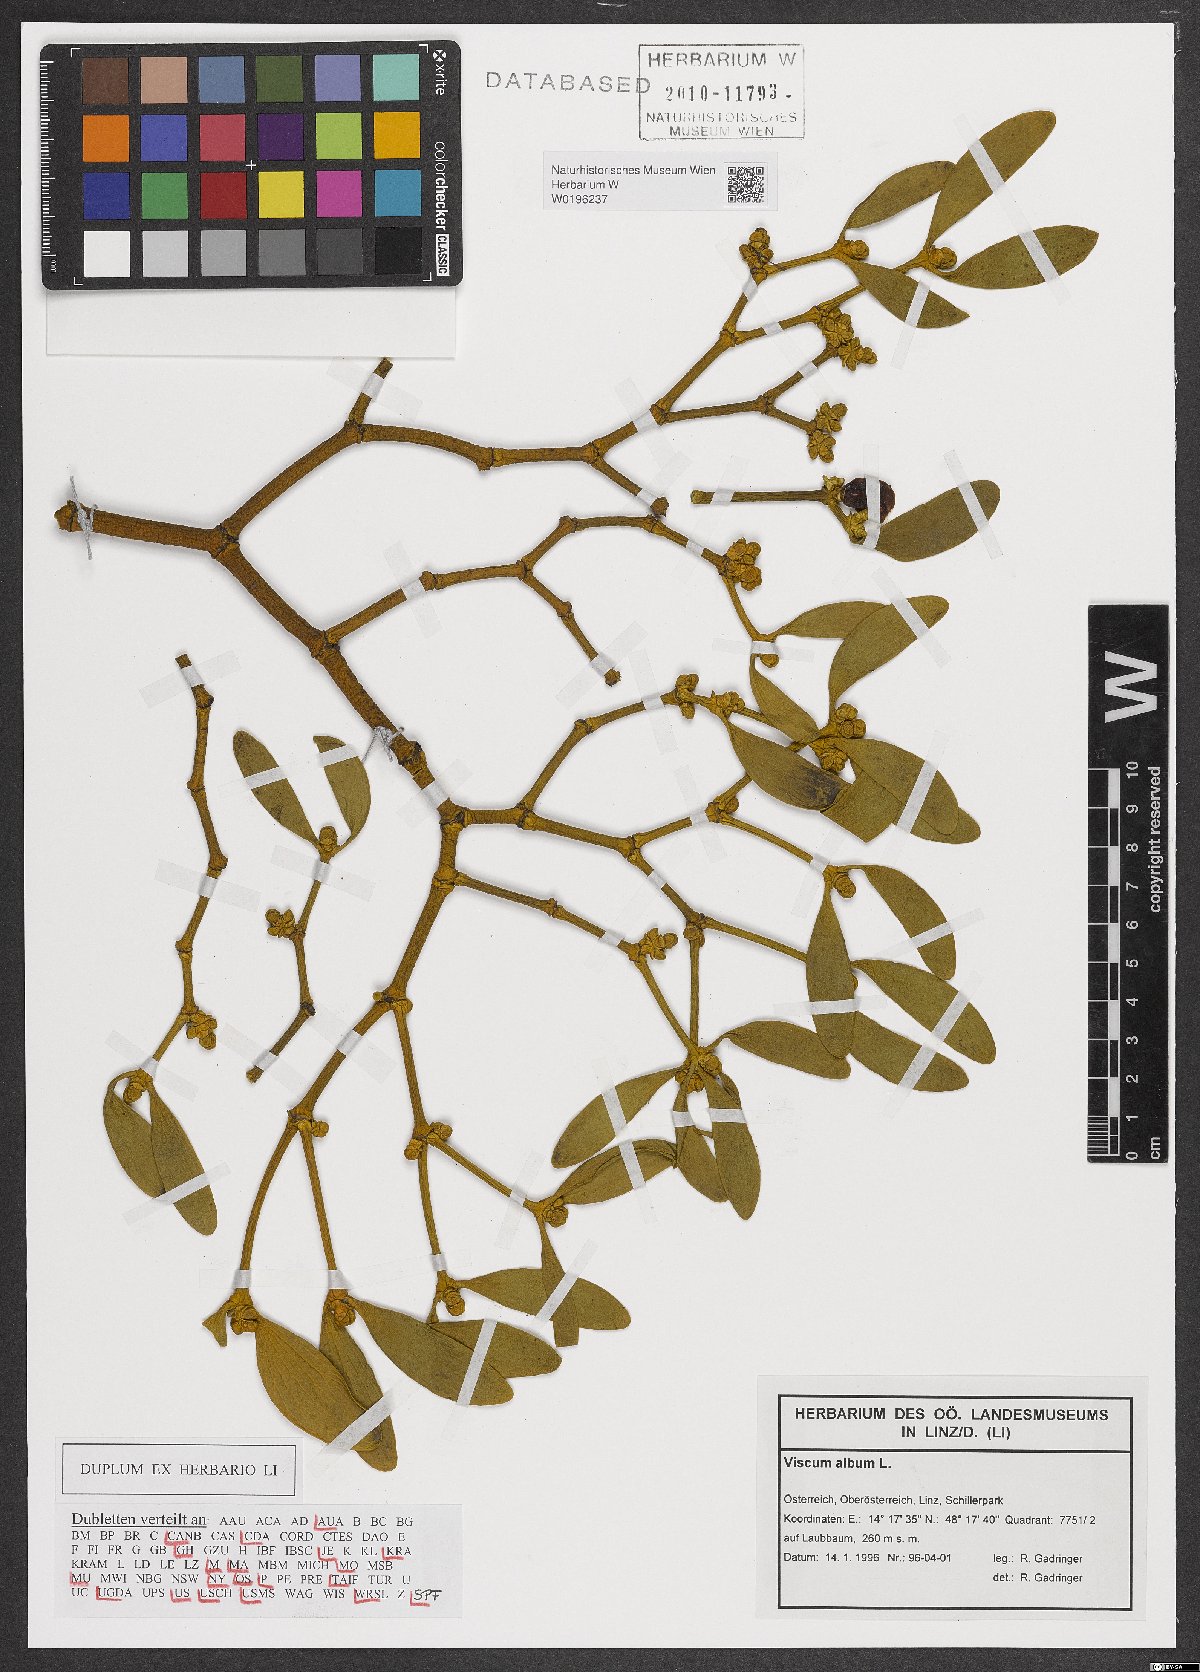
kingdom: Plantae
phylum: Tracheophyta
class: Magnoliopsida
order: Santalales
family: Viscaceae
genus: Viscum
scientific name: Viscum album
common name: Mistletoe
